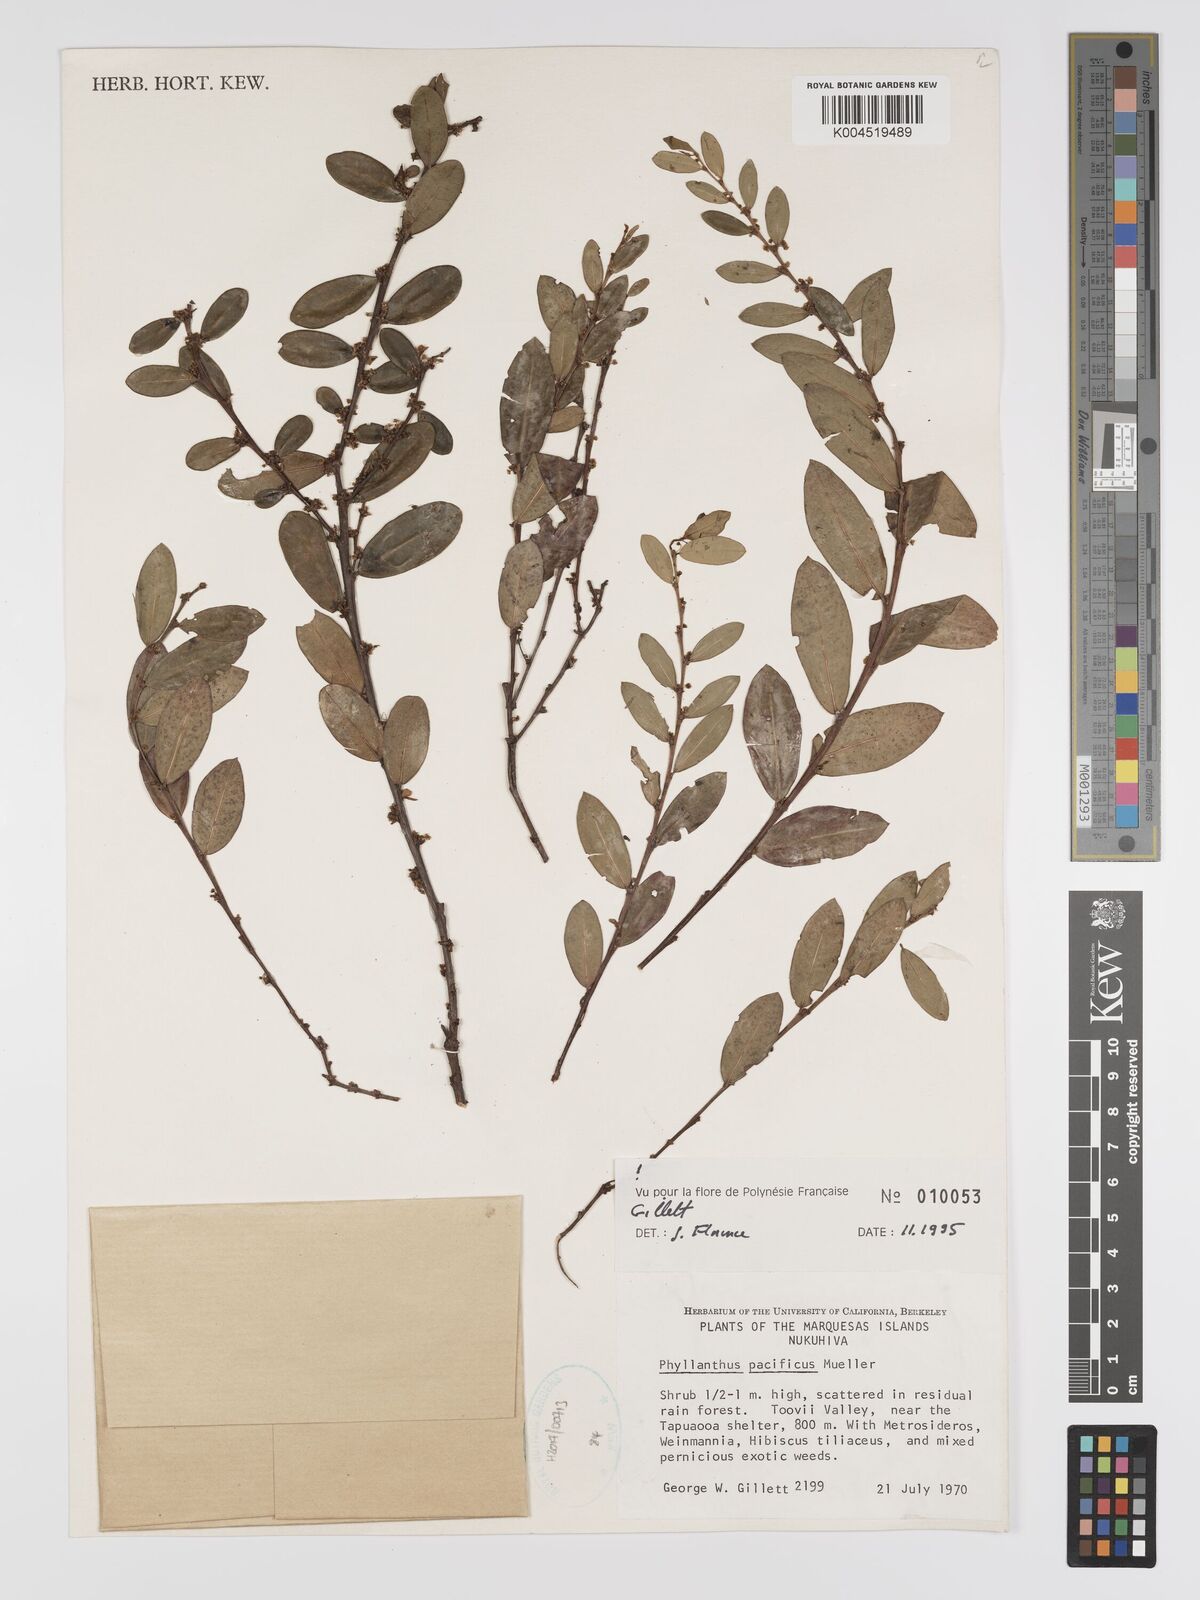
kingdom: Plantae
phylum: Tracheophyta
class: Magnoliopsida
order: Malpighiales
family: Phyllanthaceae
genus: Phyllanthus
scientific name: Phyllanthus pacificus
